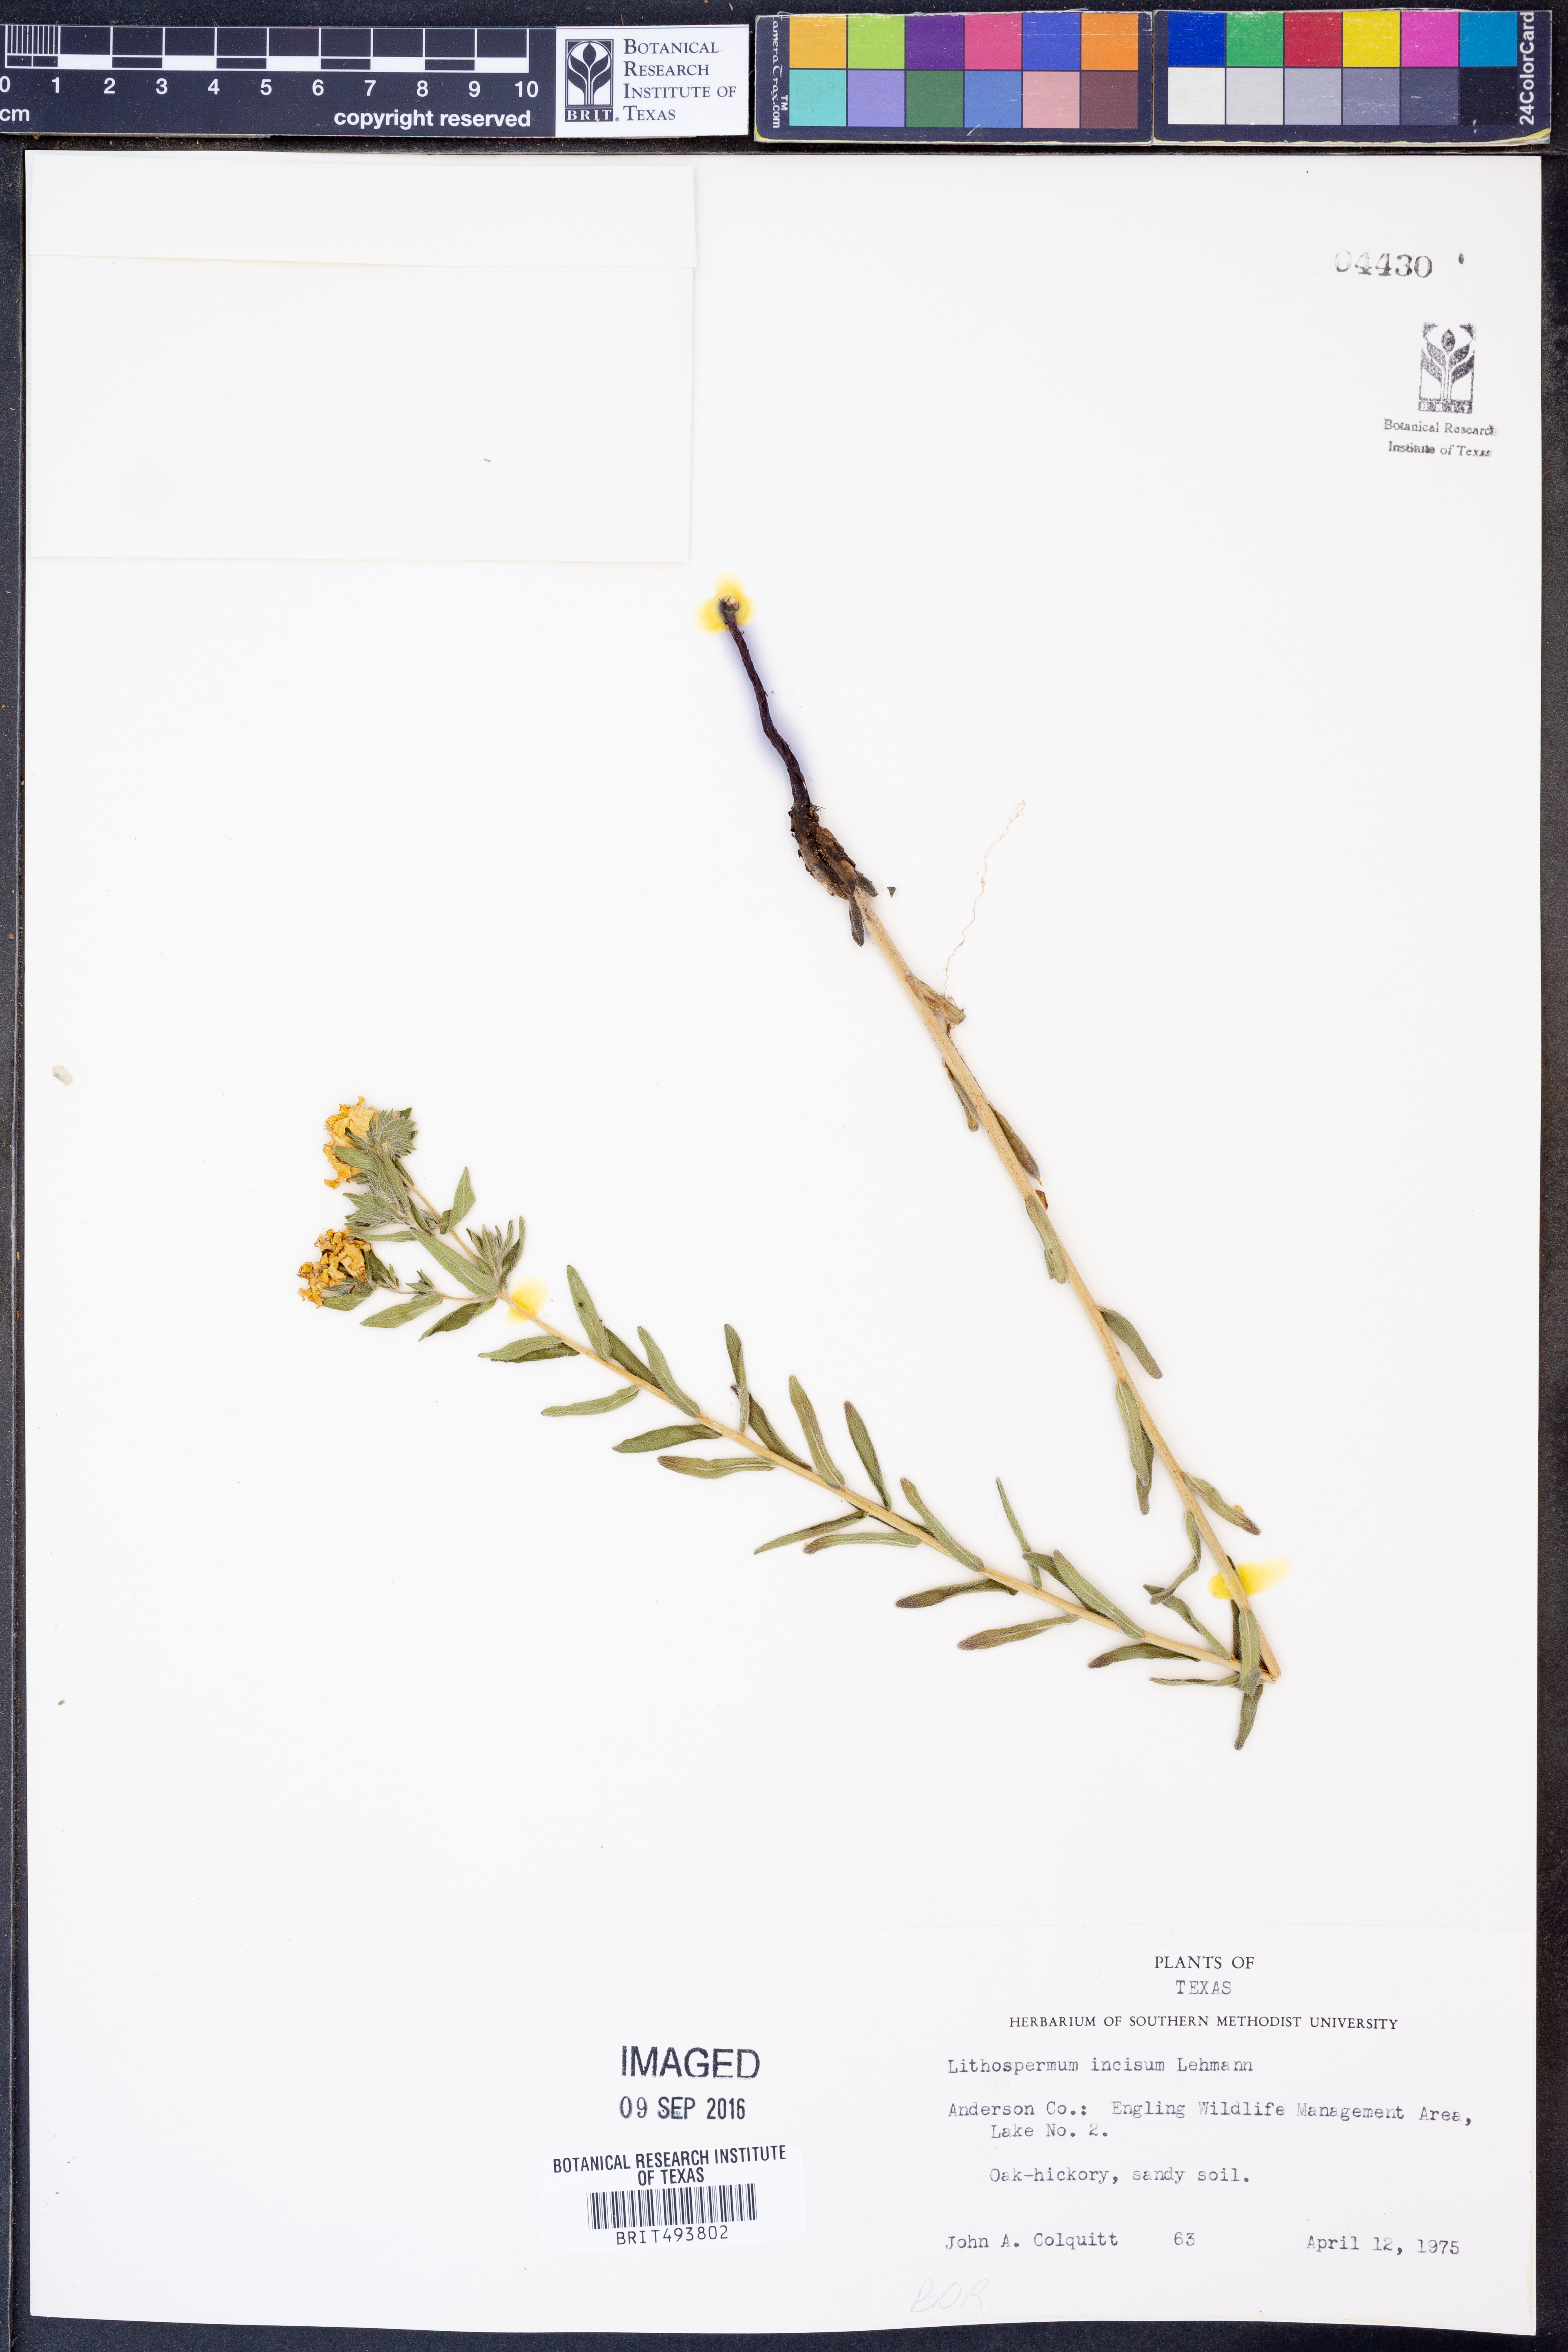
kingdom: Plantae
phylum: Tracheophyta
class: Magnoliopsida
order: Boraginales
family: Boraginaceae
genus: Lithospermum
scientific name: Lithospermum incisum
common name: Fringed gromwell
